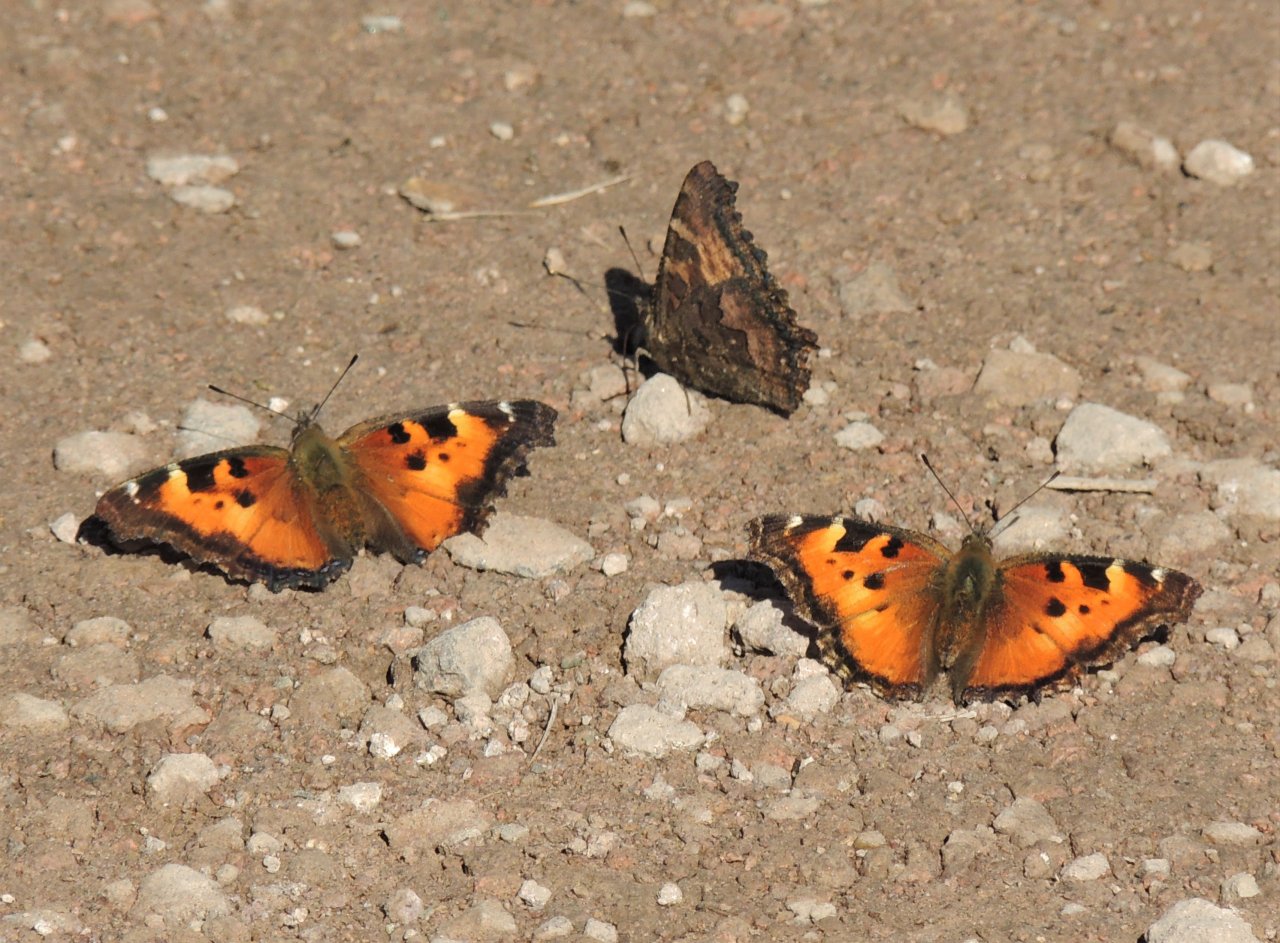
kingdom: Animalia
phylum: Arthropoda
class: Insecta
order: Lepidoptera
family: Nymphalidae
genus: Nymphalis
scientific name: Nymphalis californica
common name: California Tortoiseshell
